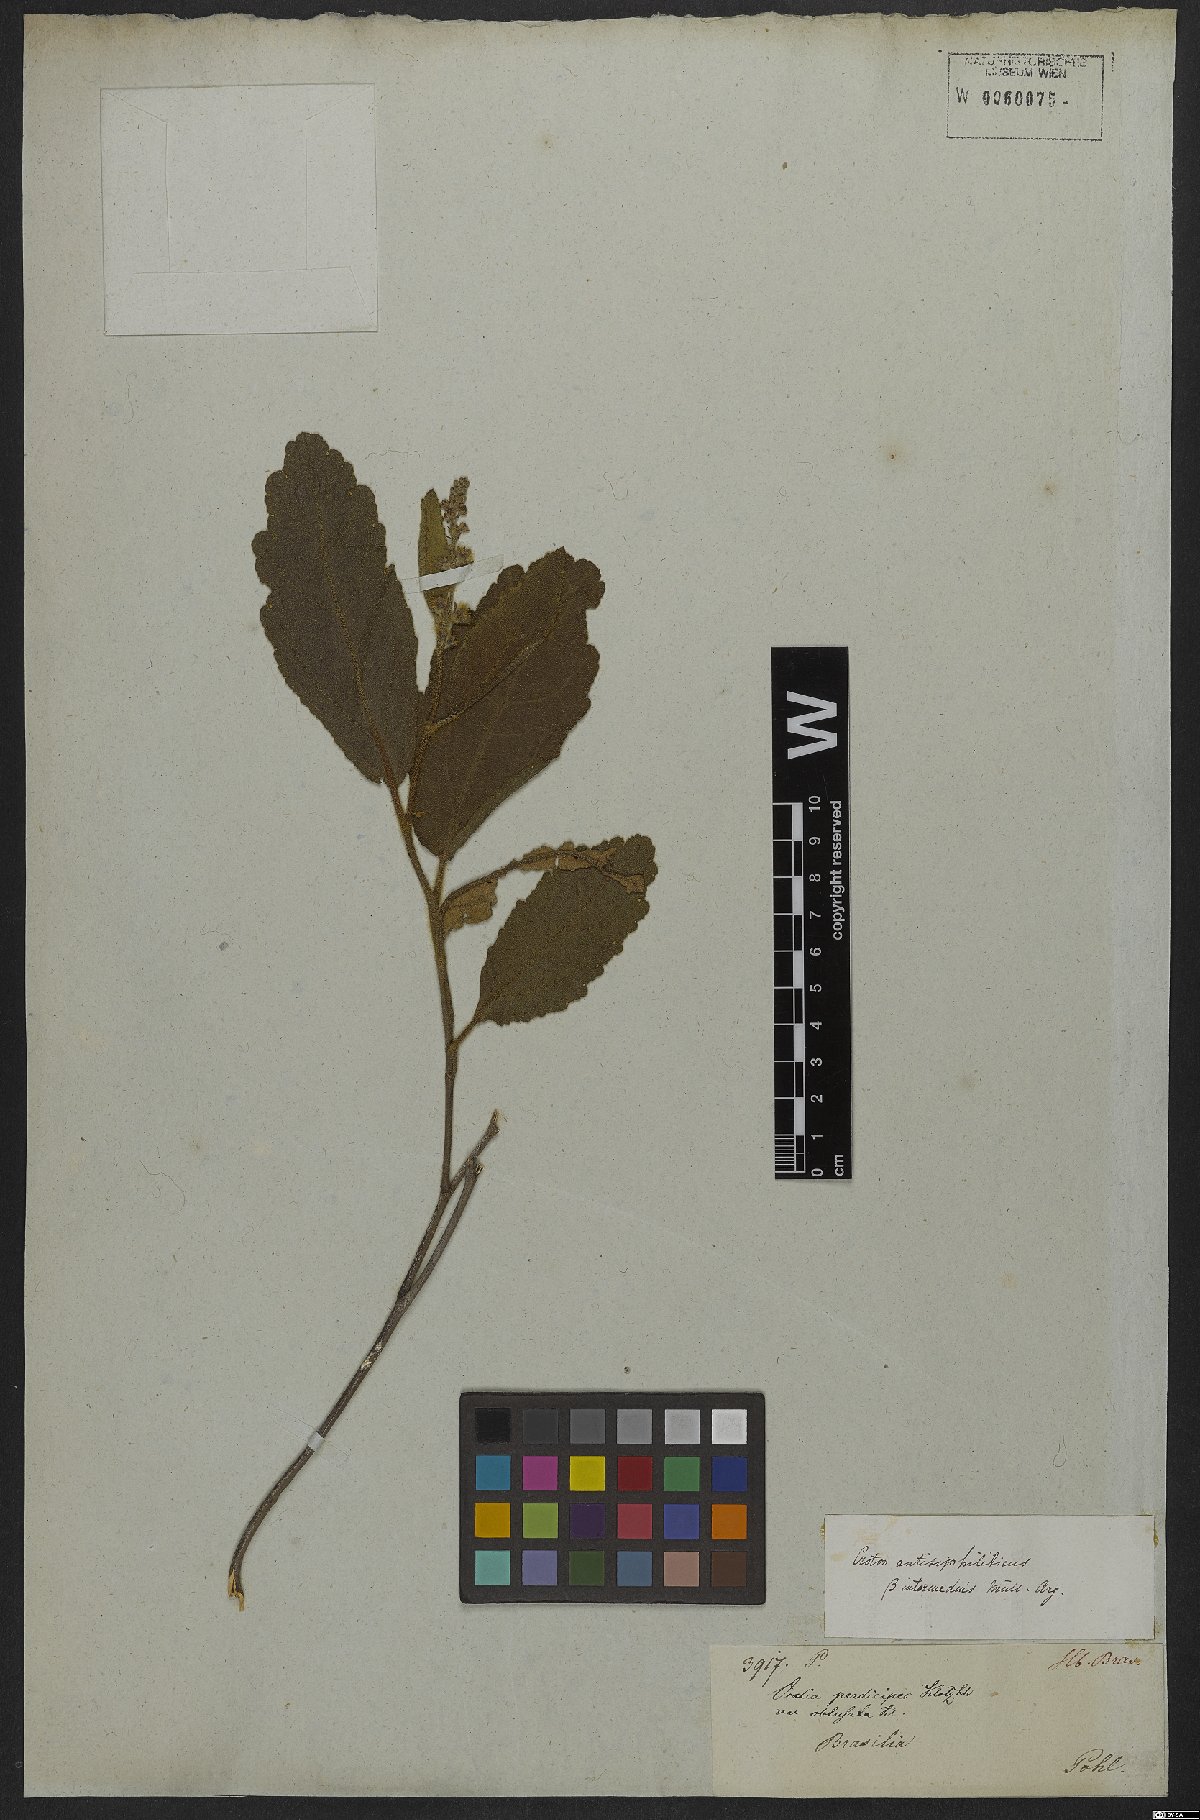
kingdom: Plantae
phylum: Tracheophyta
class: Magnoliopsida
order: Malpighiales
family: Euphorbiaceae
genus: Croton
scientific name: Croton antisyphiliticus
